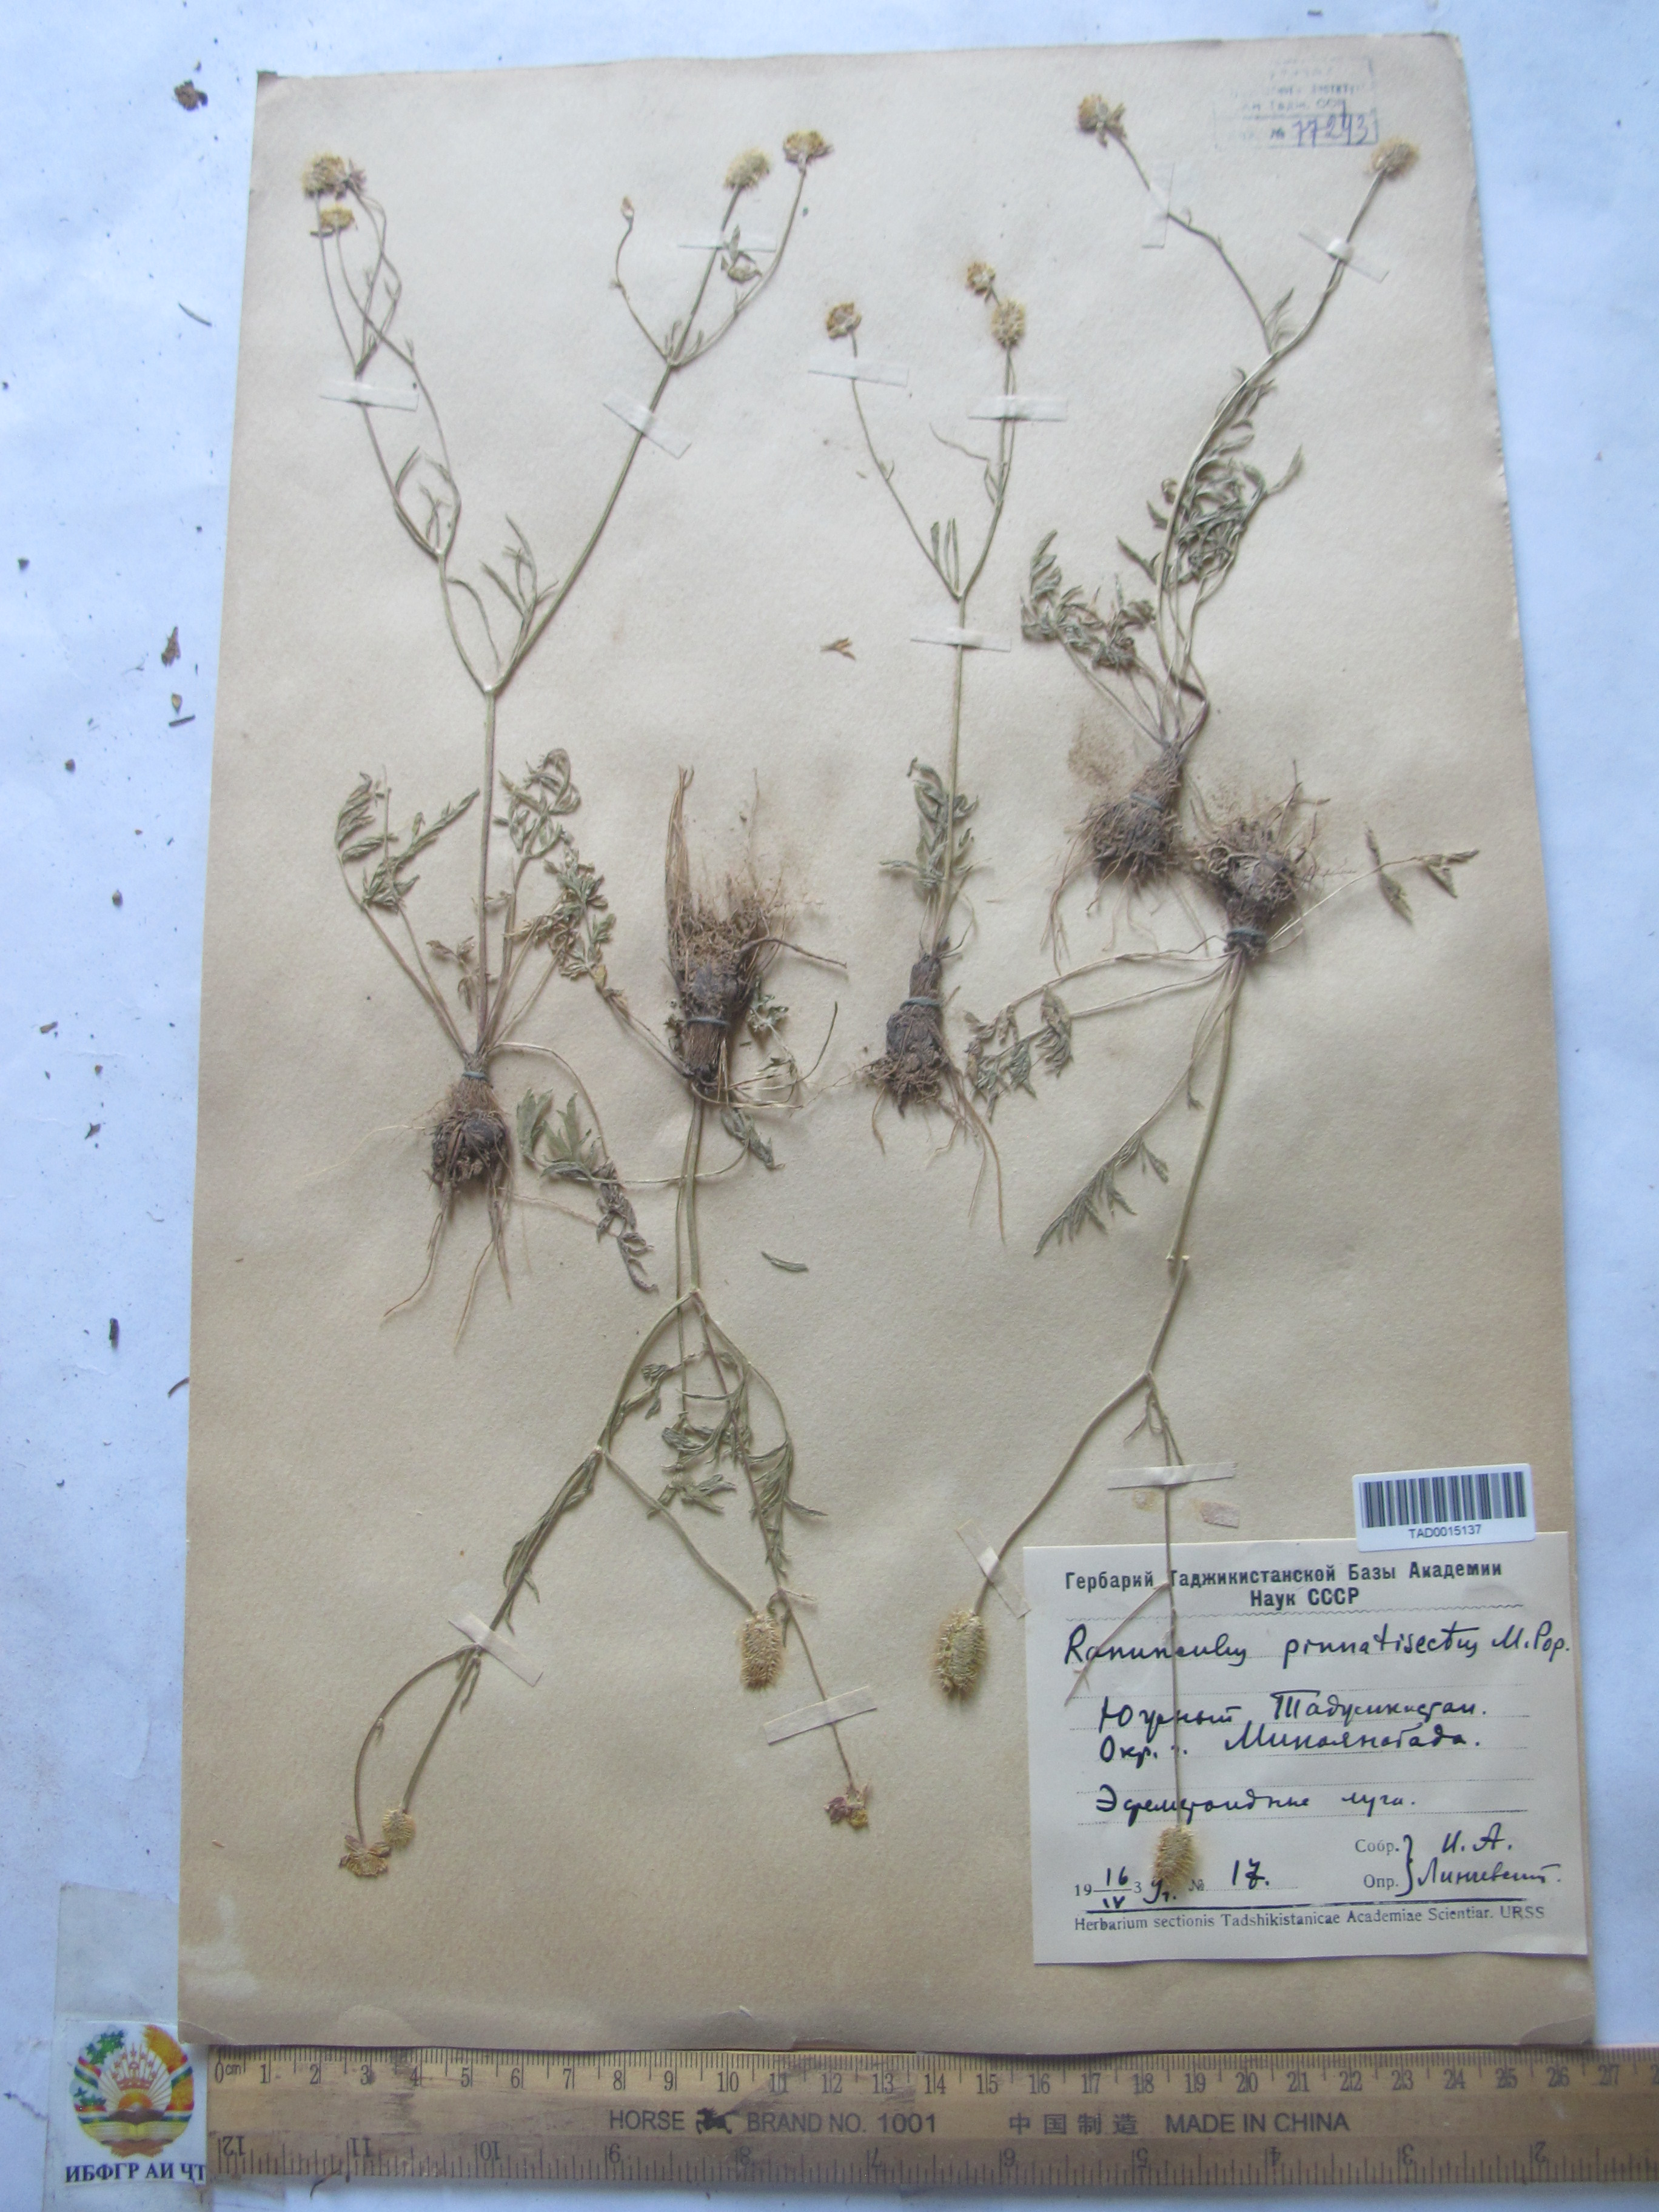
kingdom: Plantae
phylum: Tracheophyta
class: Magnoliopsida
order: Ranunculales
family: Ranunculaceae
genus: Ranunculus
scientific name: Ranunculus pinnatisectus
